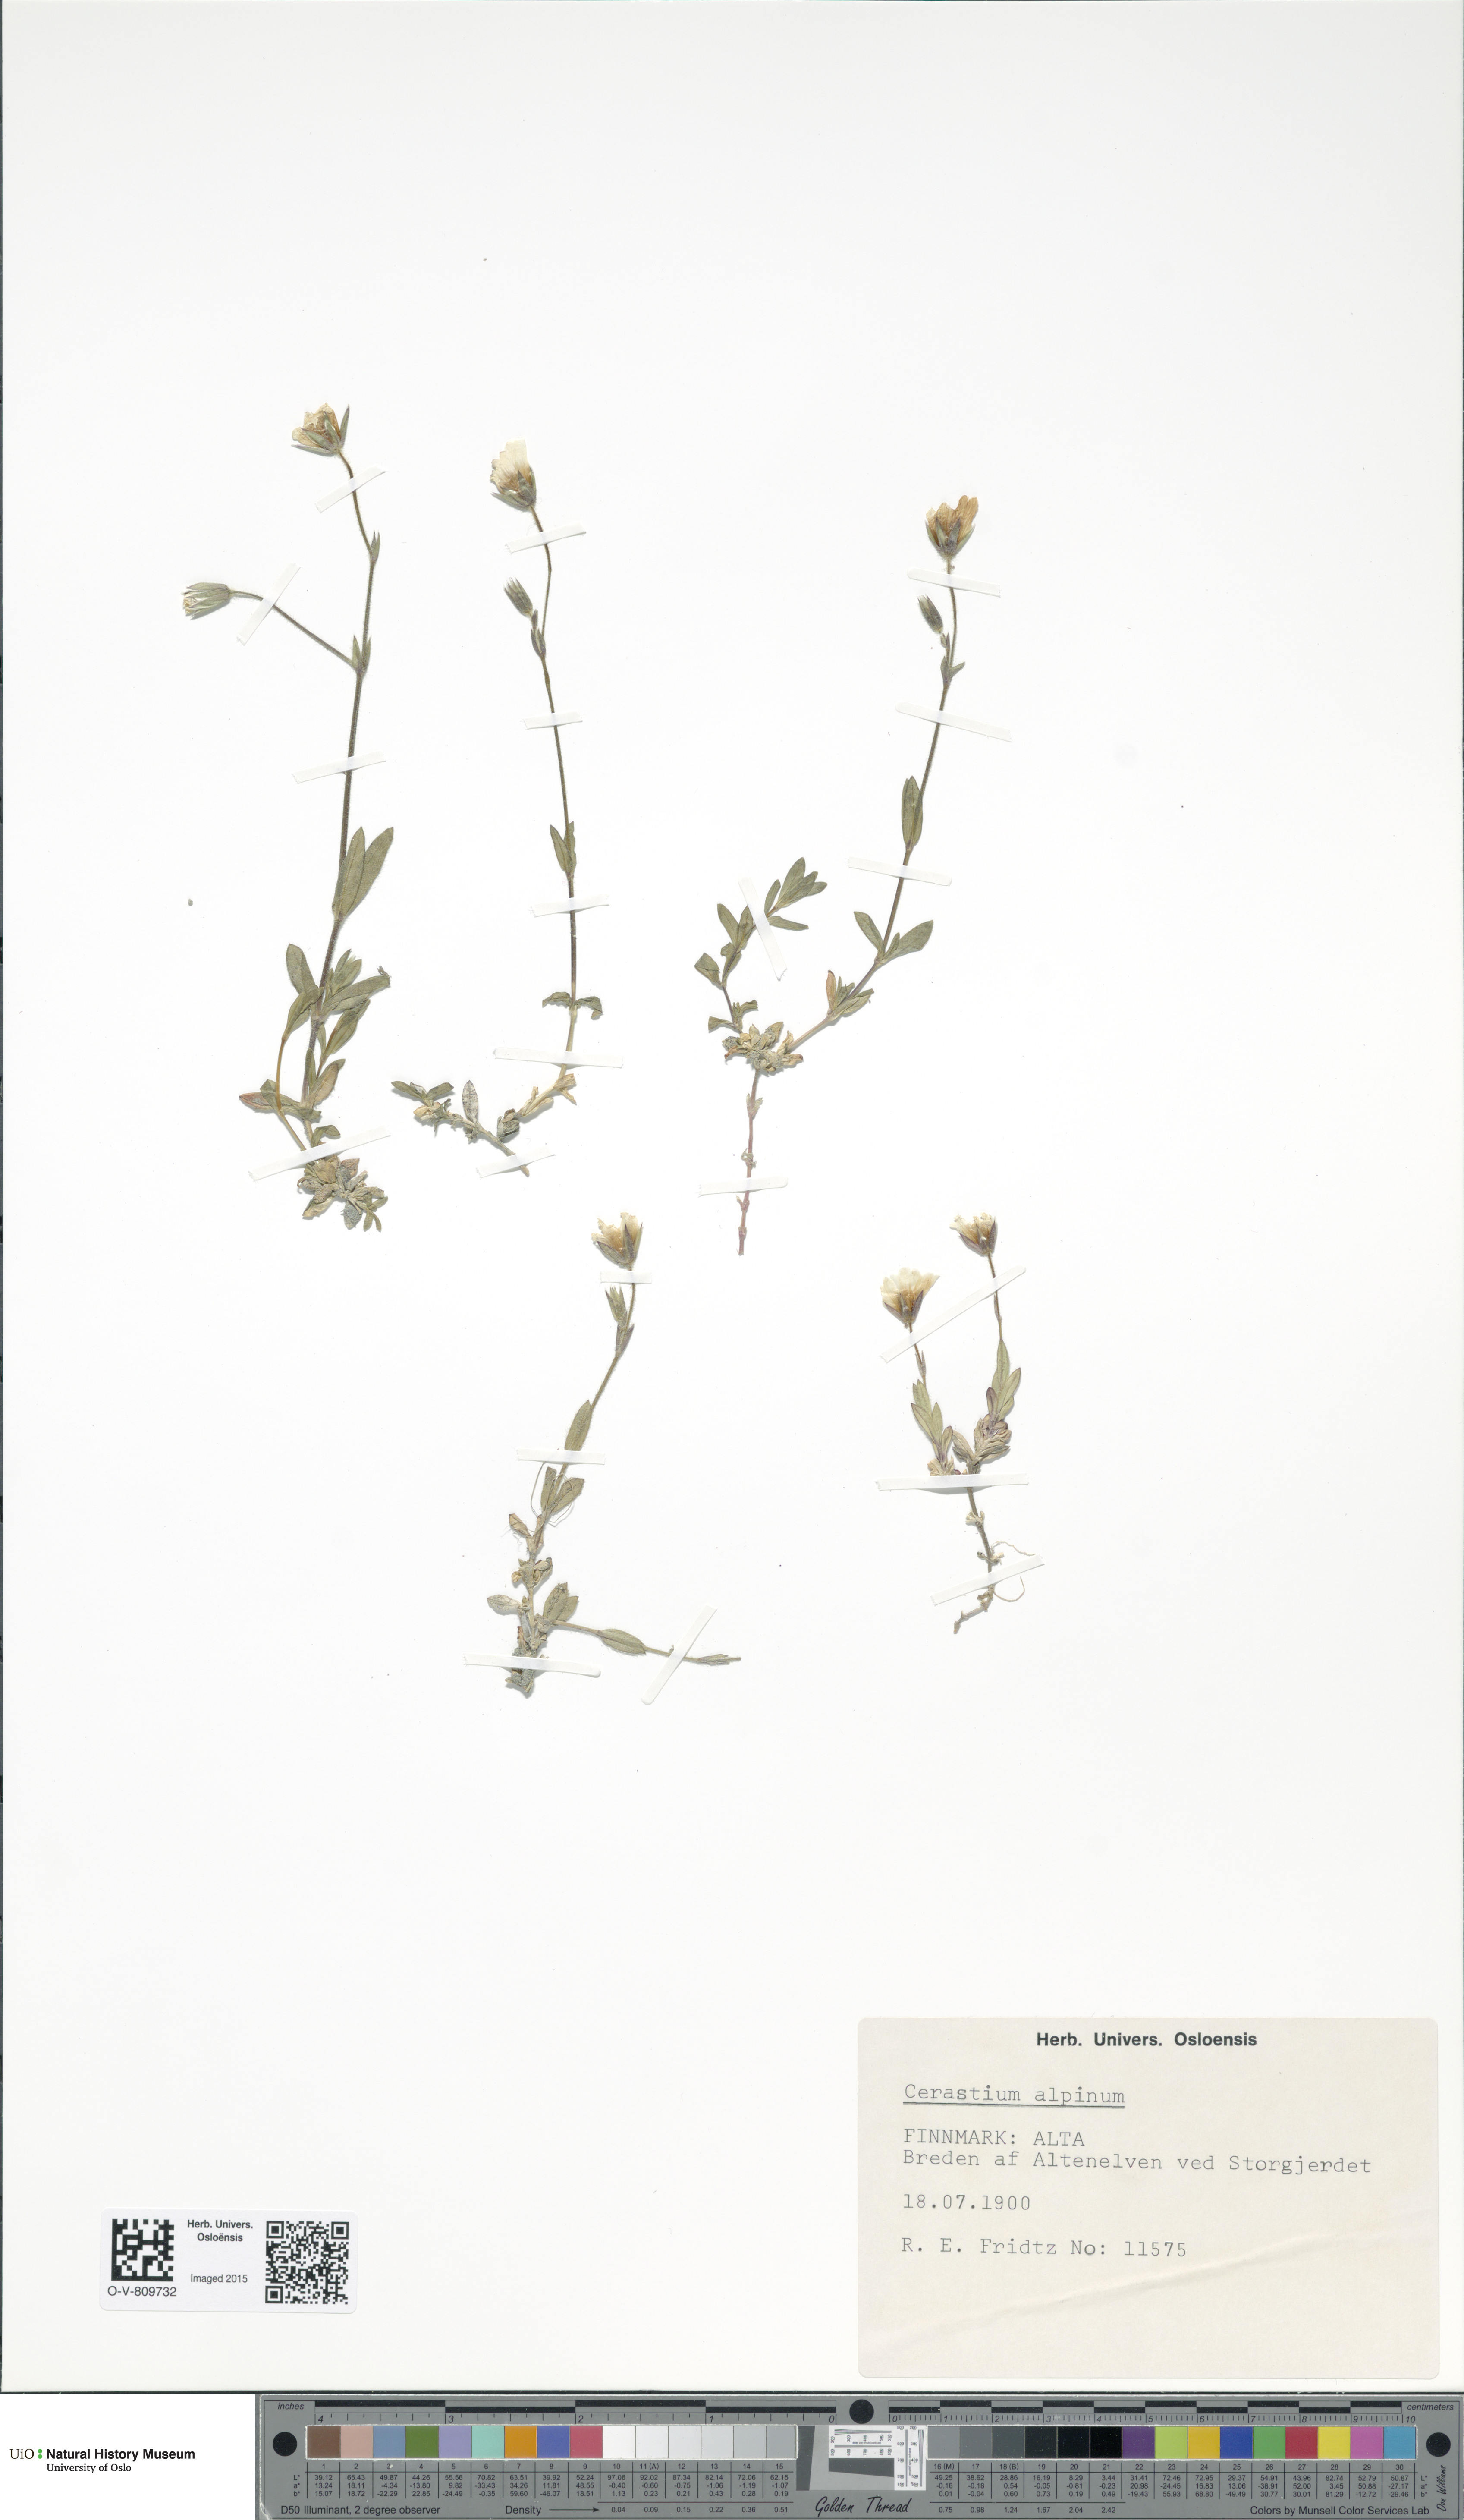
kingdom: Plantae
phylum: Tracheophyta
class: Magnoliopsida
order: Caryophyllales
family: Caryophyllaceae
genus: Cerastium
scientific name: Cerastium alpinum
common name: Alpine mouse-ear
